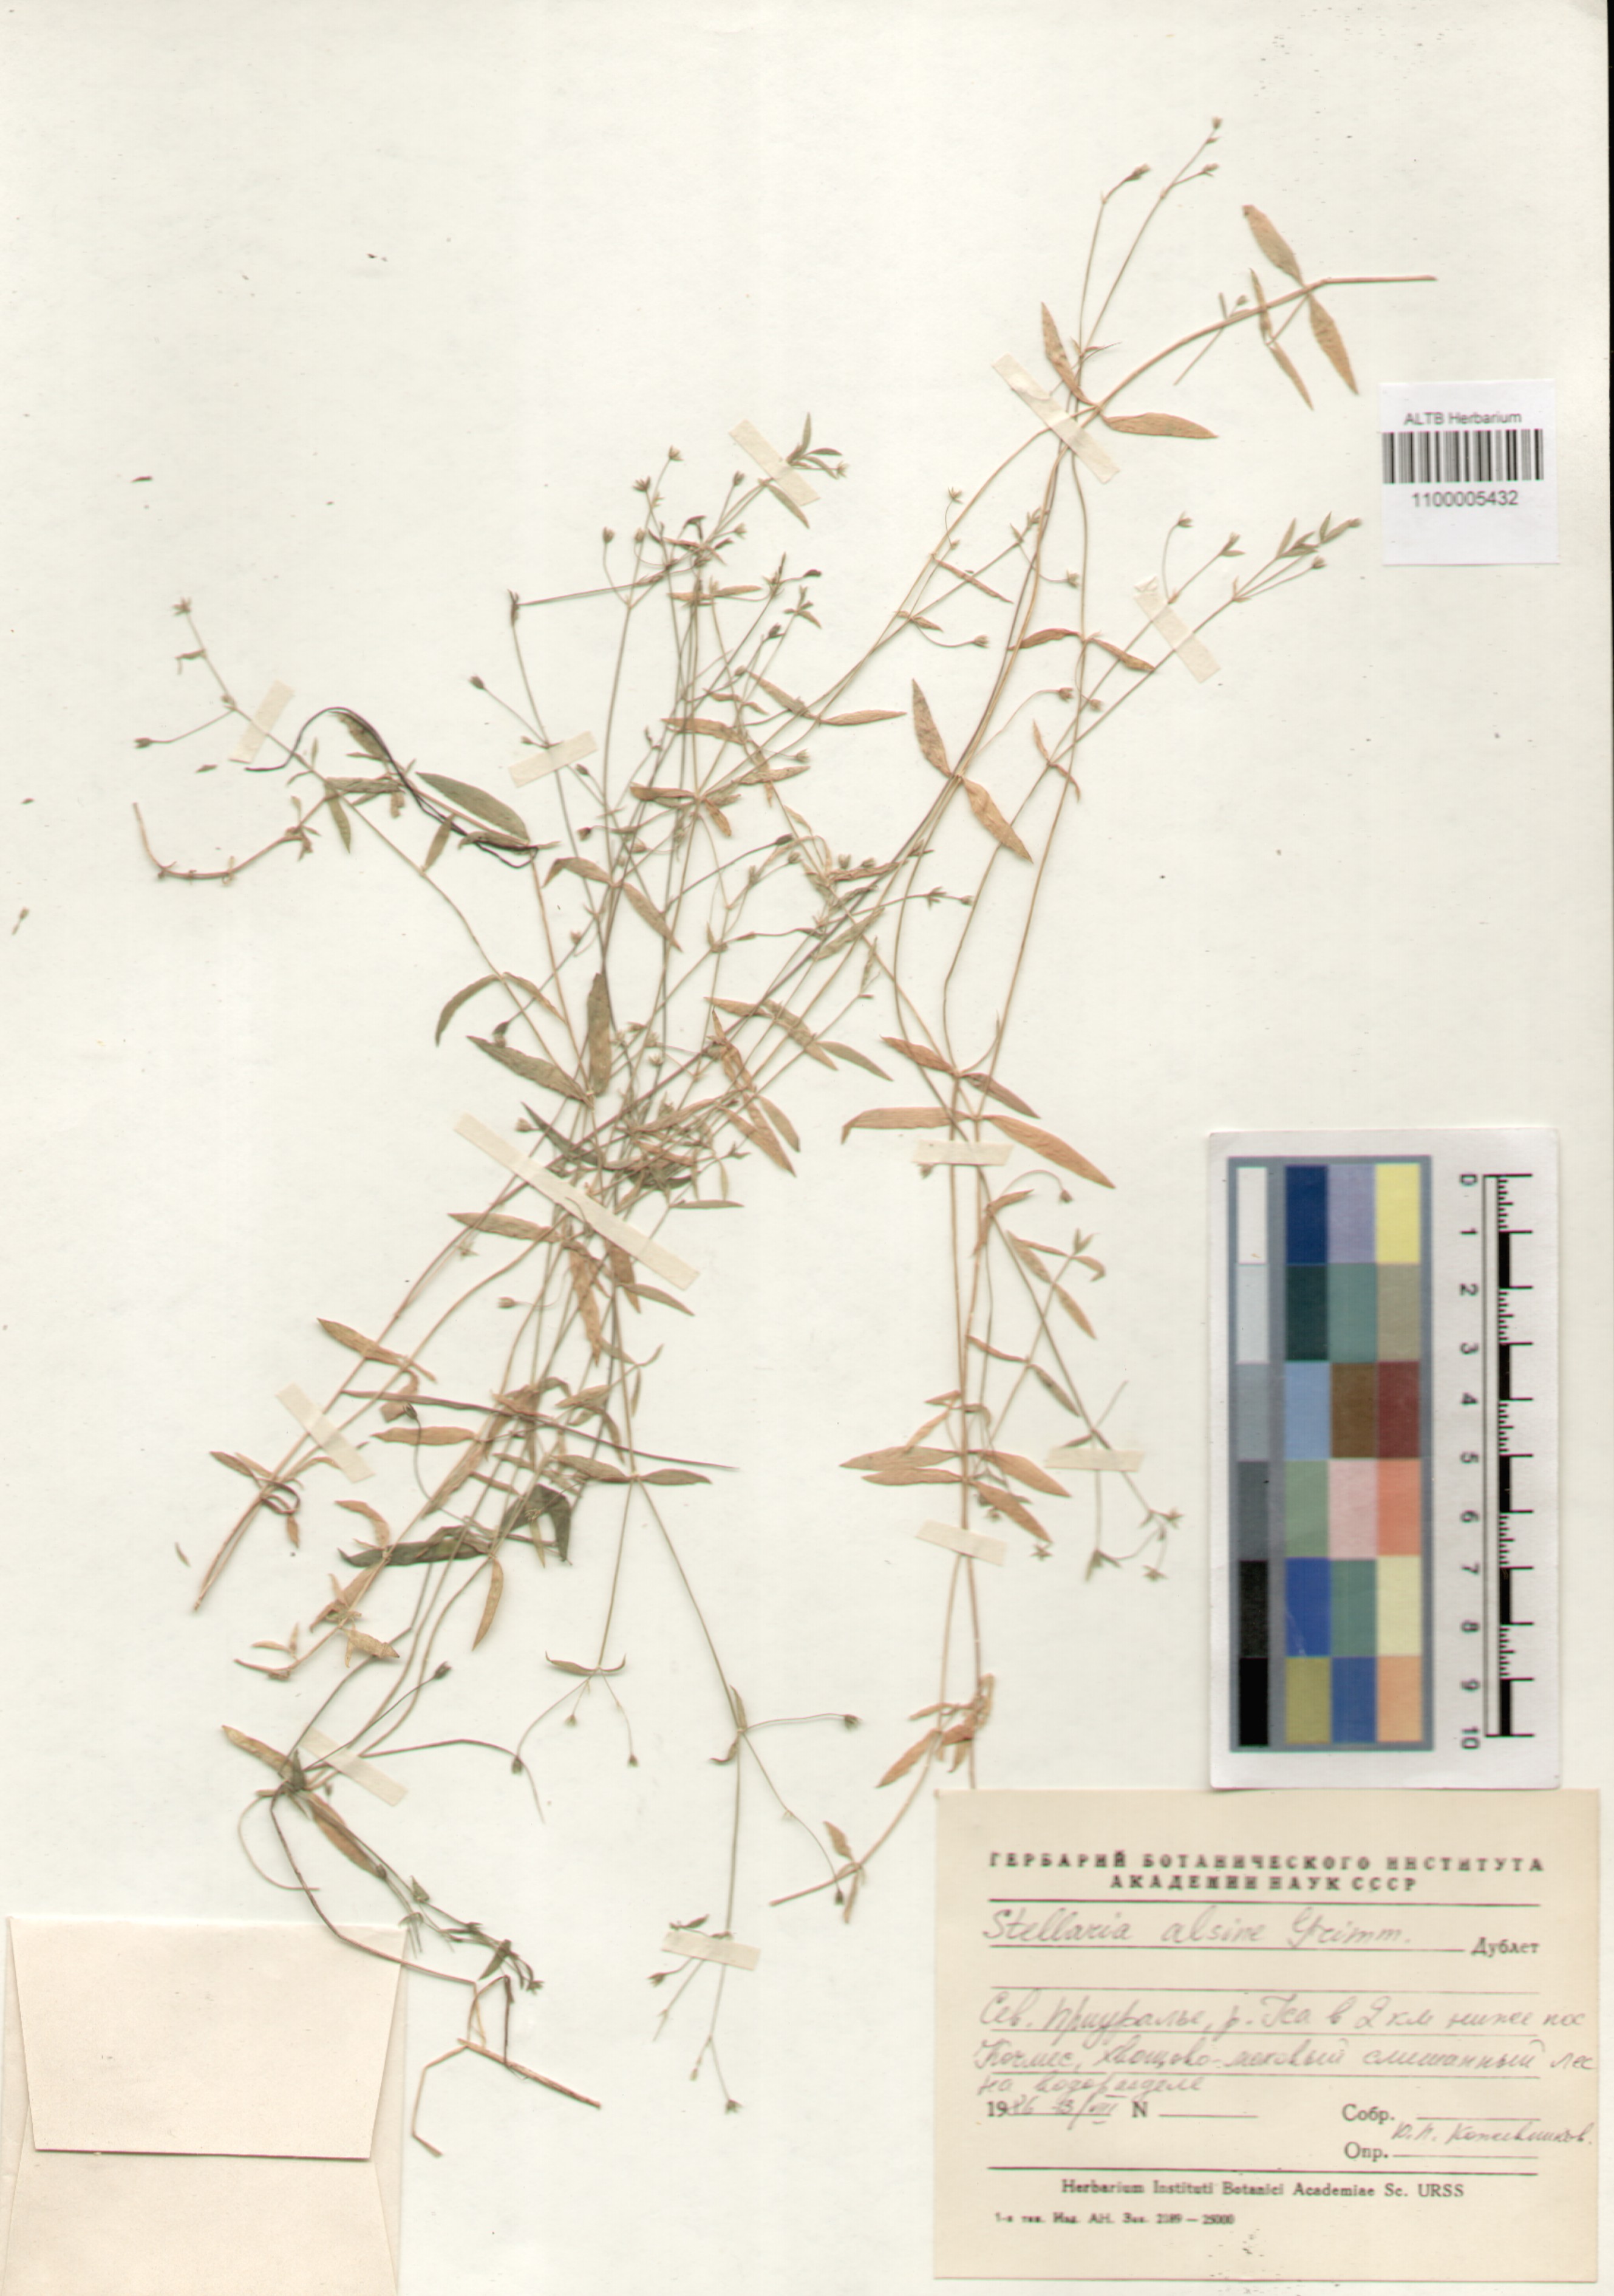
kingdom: Plantae
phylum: Tracheophyta
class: Magnoliopsida
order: Caryophyllales
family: Caryophyllaceae
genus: Stellaria
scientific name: Stellaria alsine
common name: Bog stitchwort
